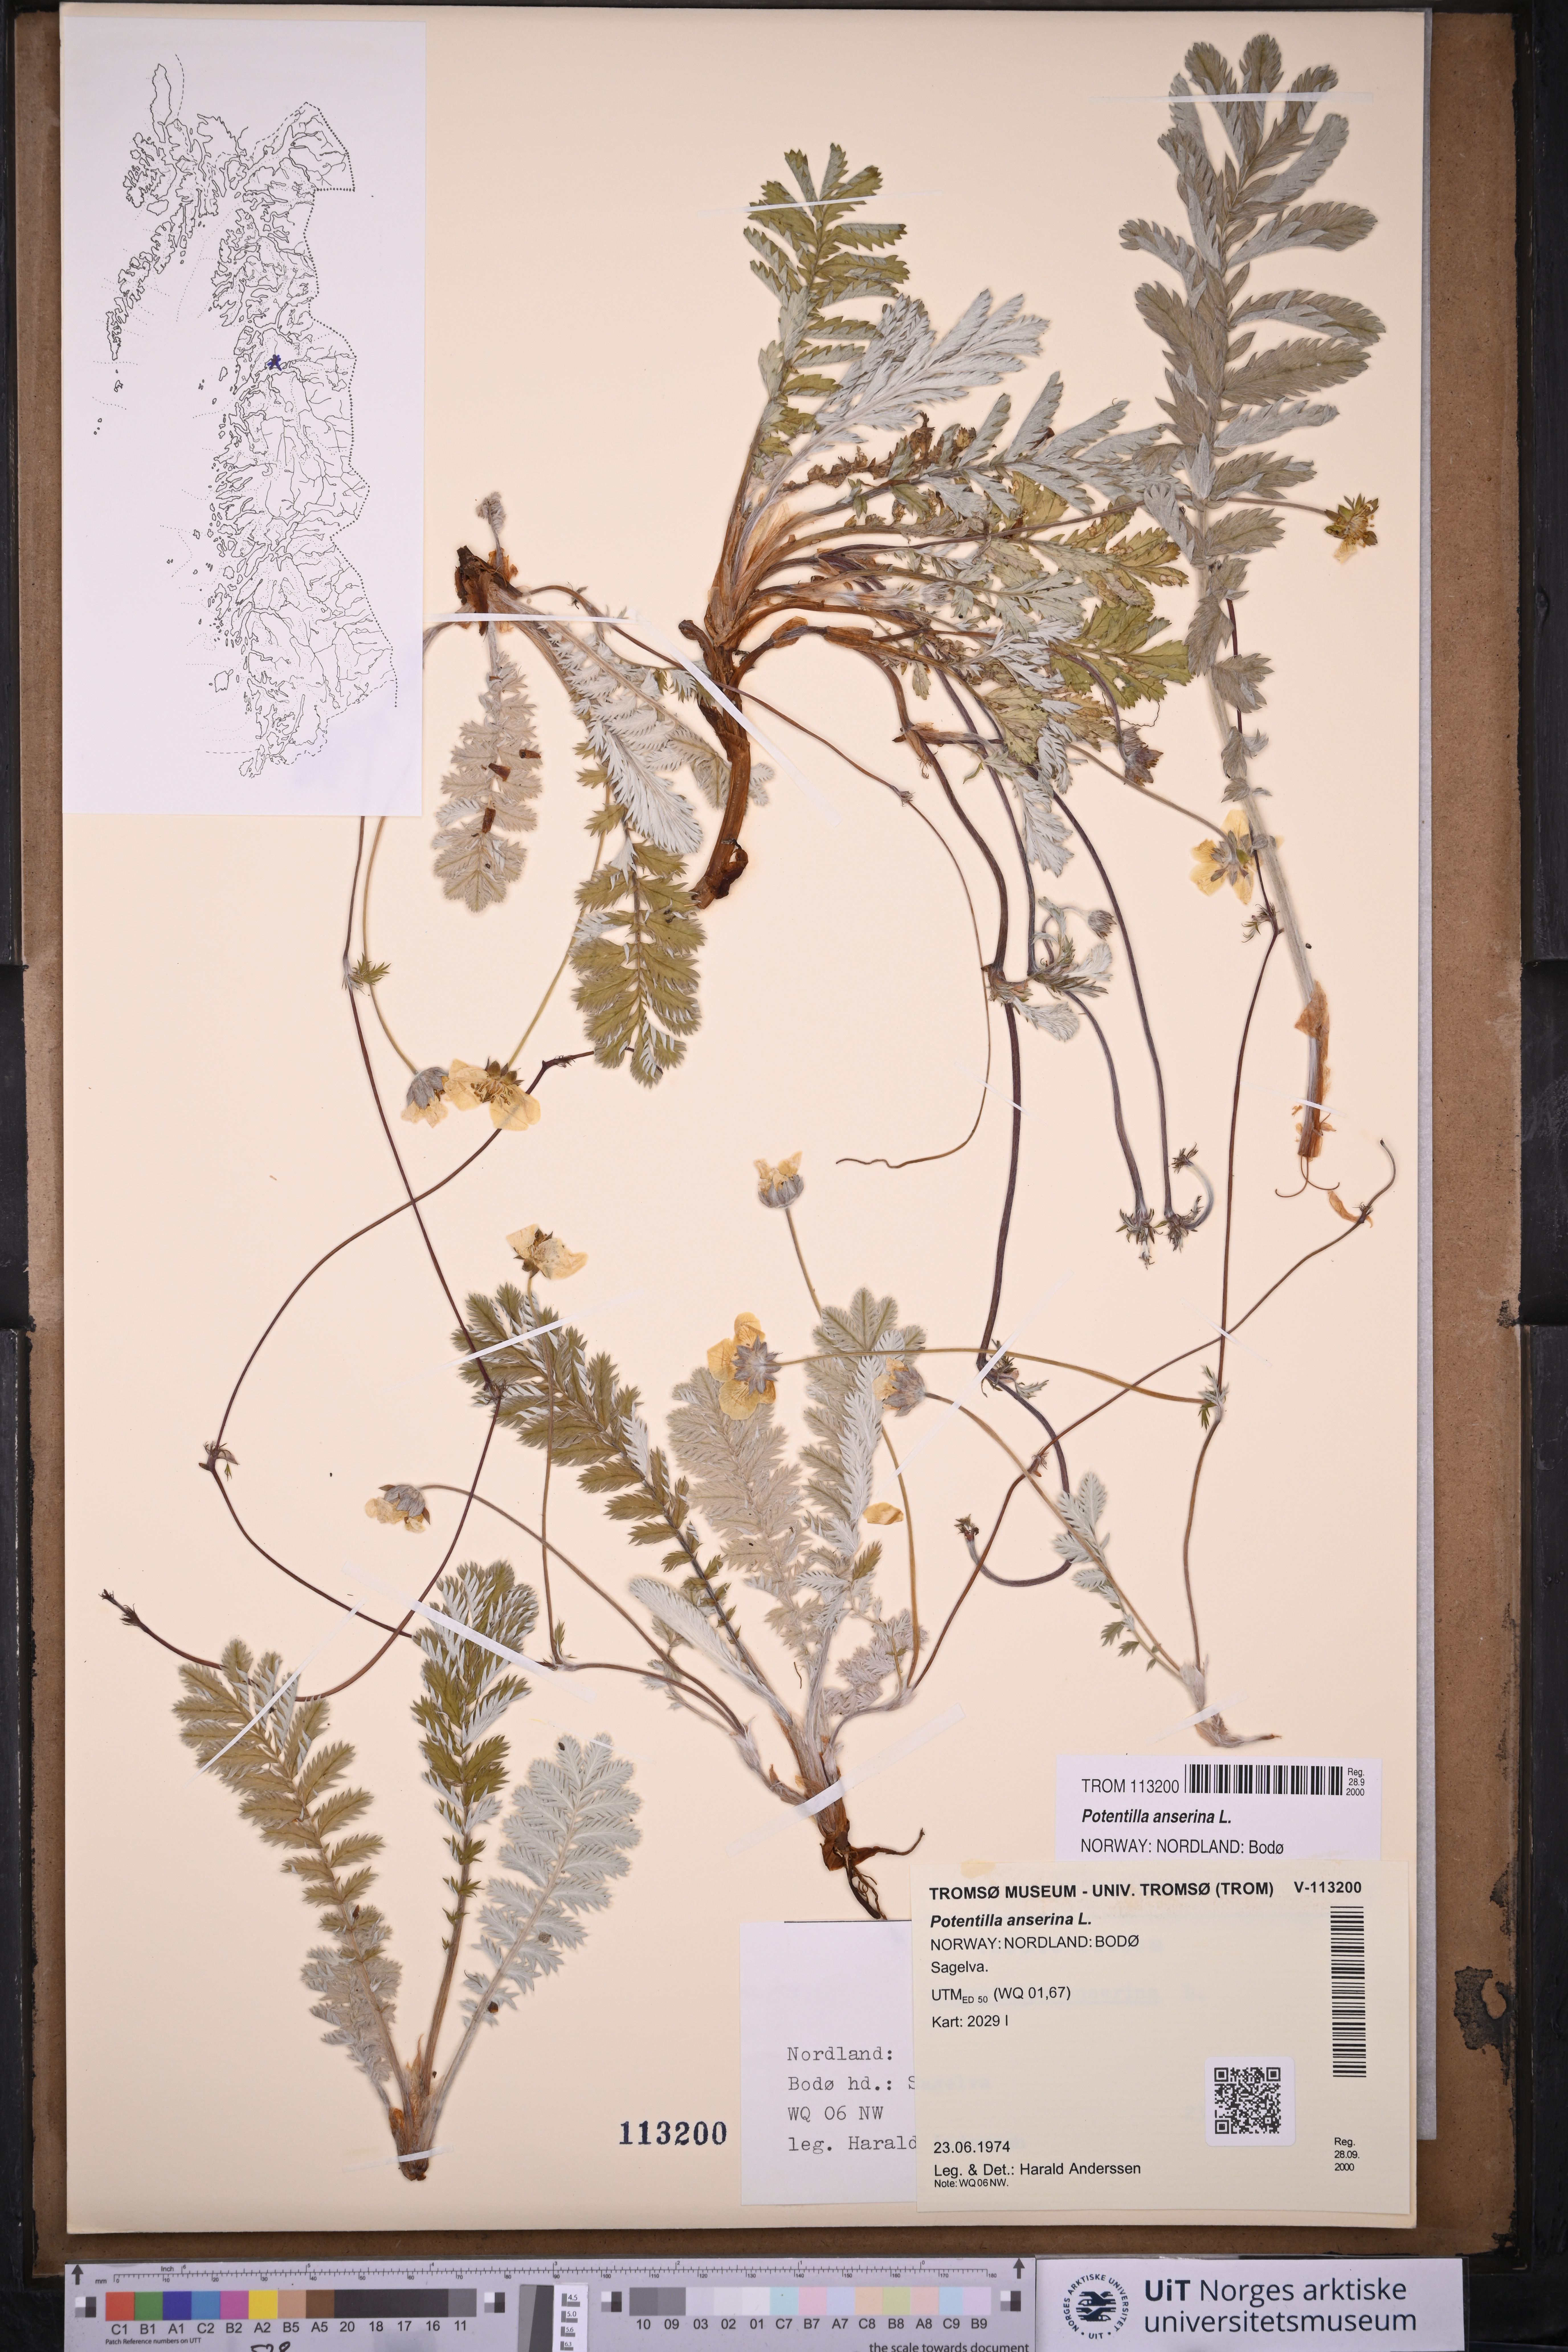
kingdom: Plantae
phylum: Tracheophyta
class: Magnoliopsida
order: Rosales
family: Rosaceae
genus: Argentina
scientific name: Argentina anserina
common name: Common silverweed
